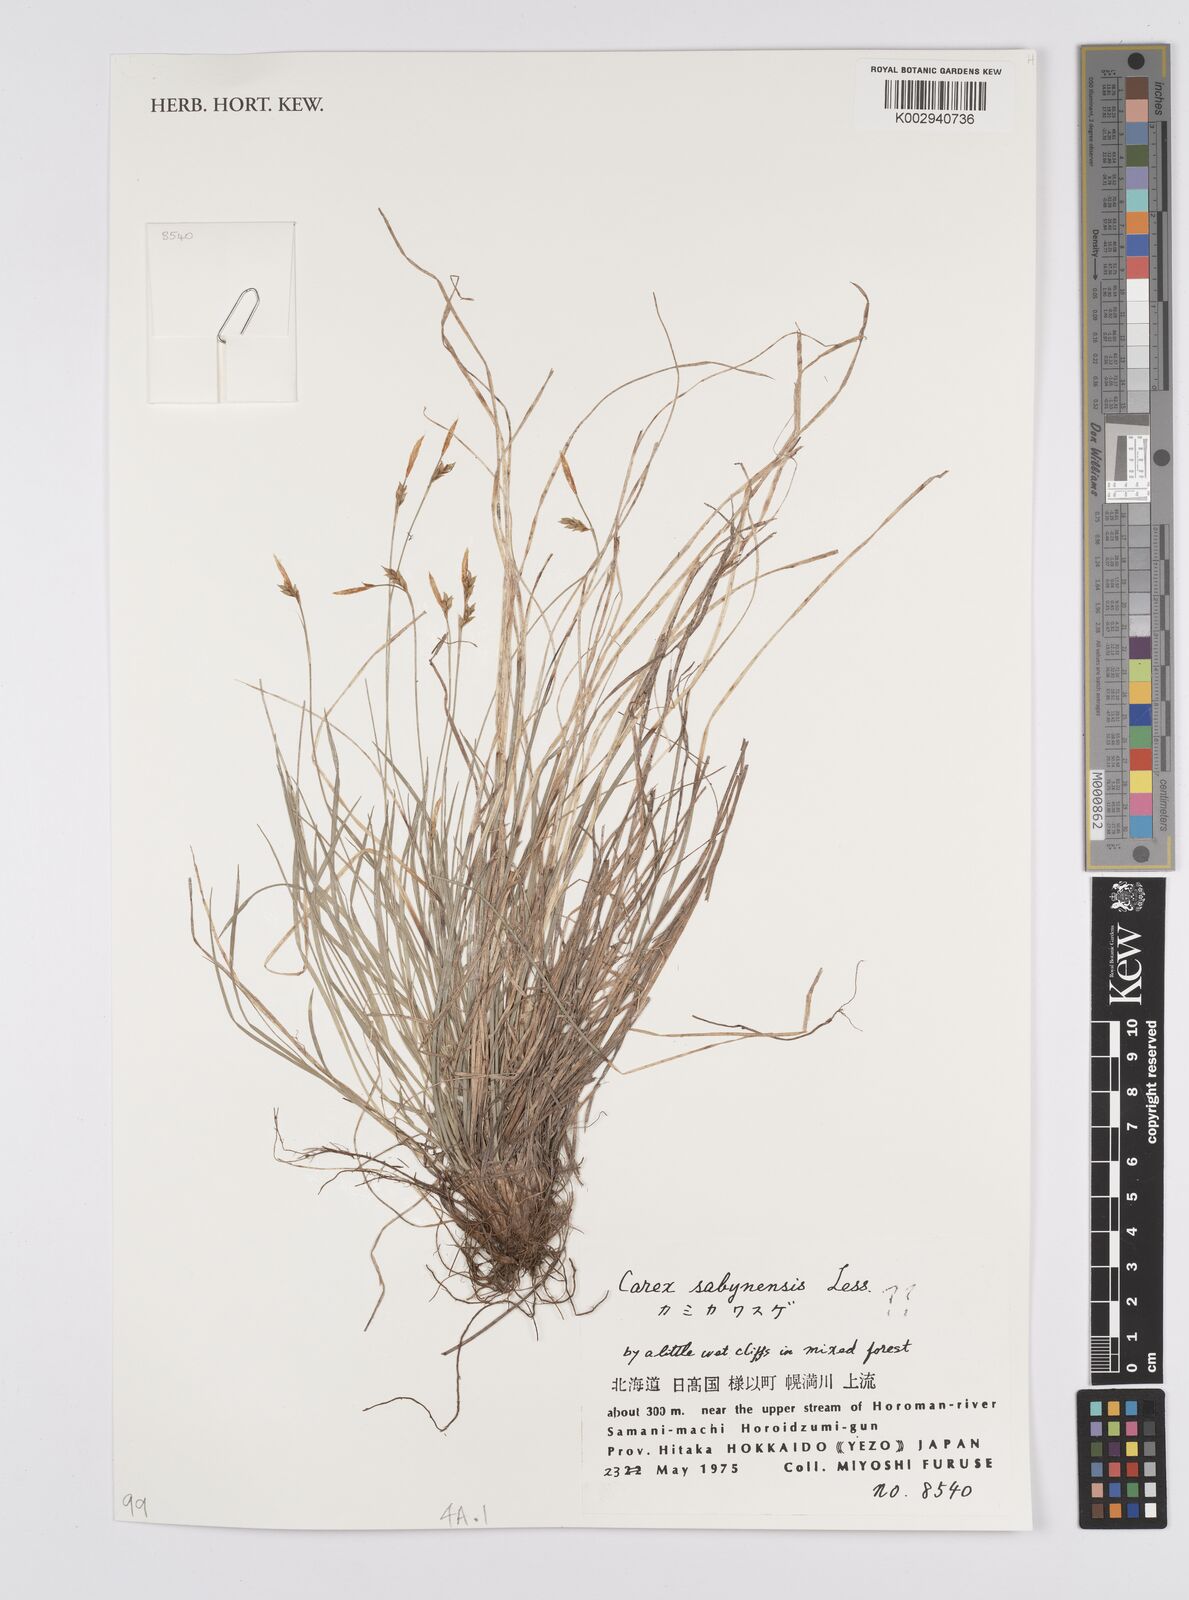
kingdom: Plantae
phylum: Tracheophyta
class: Liliopsida
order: Poales
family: Cyperaceae
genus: Carex
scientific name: Carex umbrosa
